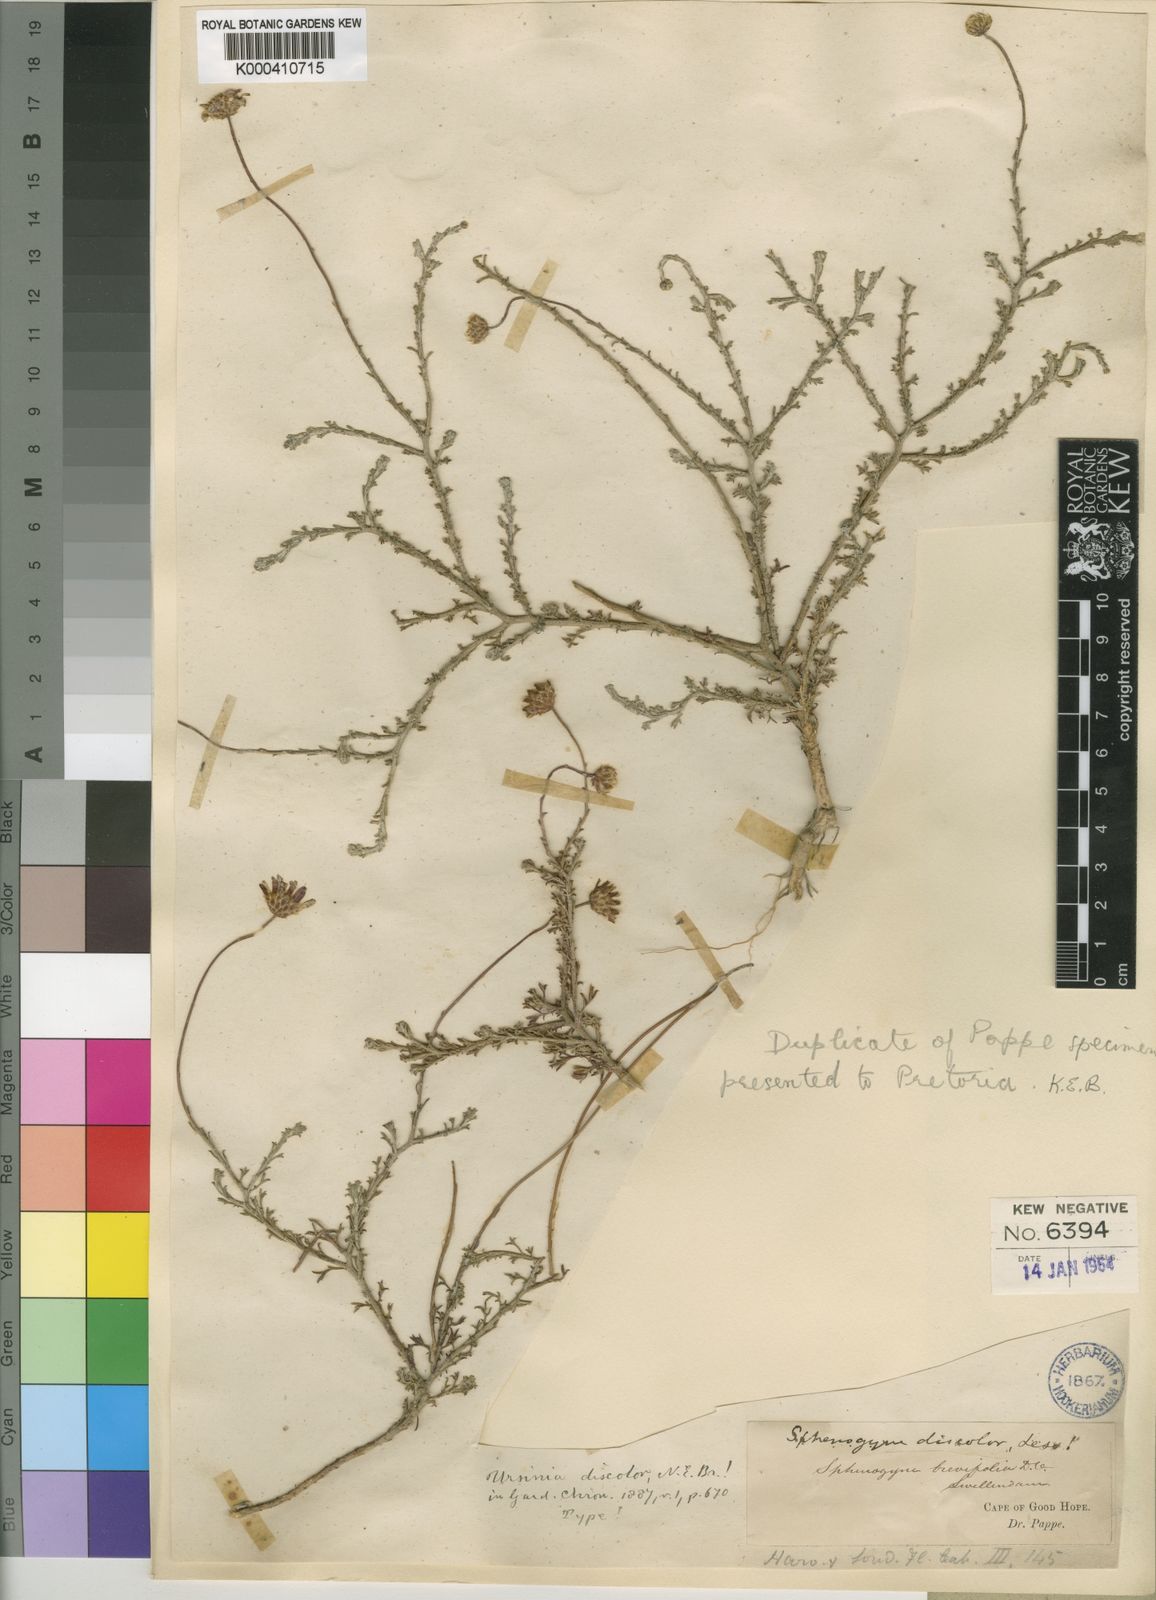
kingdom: Plantae
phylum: Tracheophyta
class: Magnoliopsida
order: Asterales
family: Asteraceae
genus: Ursinia
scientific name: Ursinia discolor
